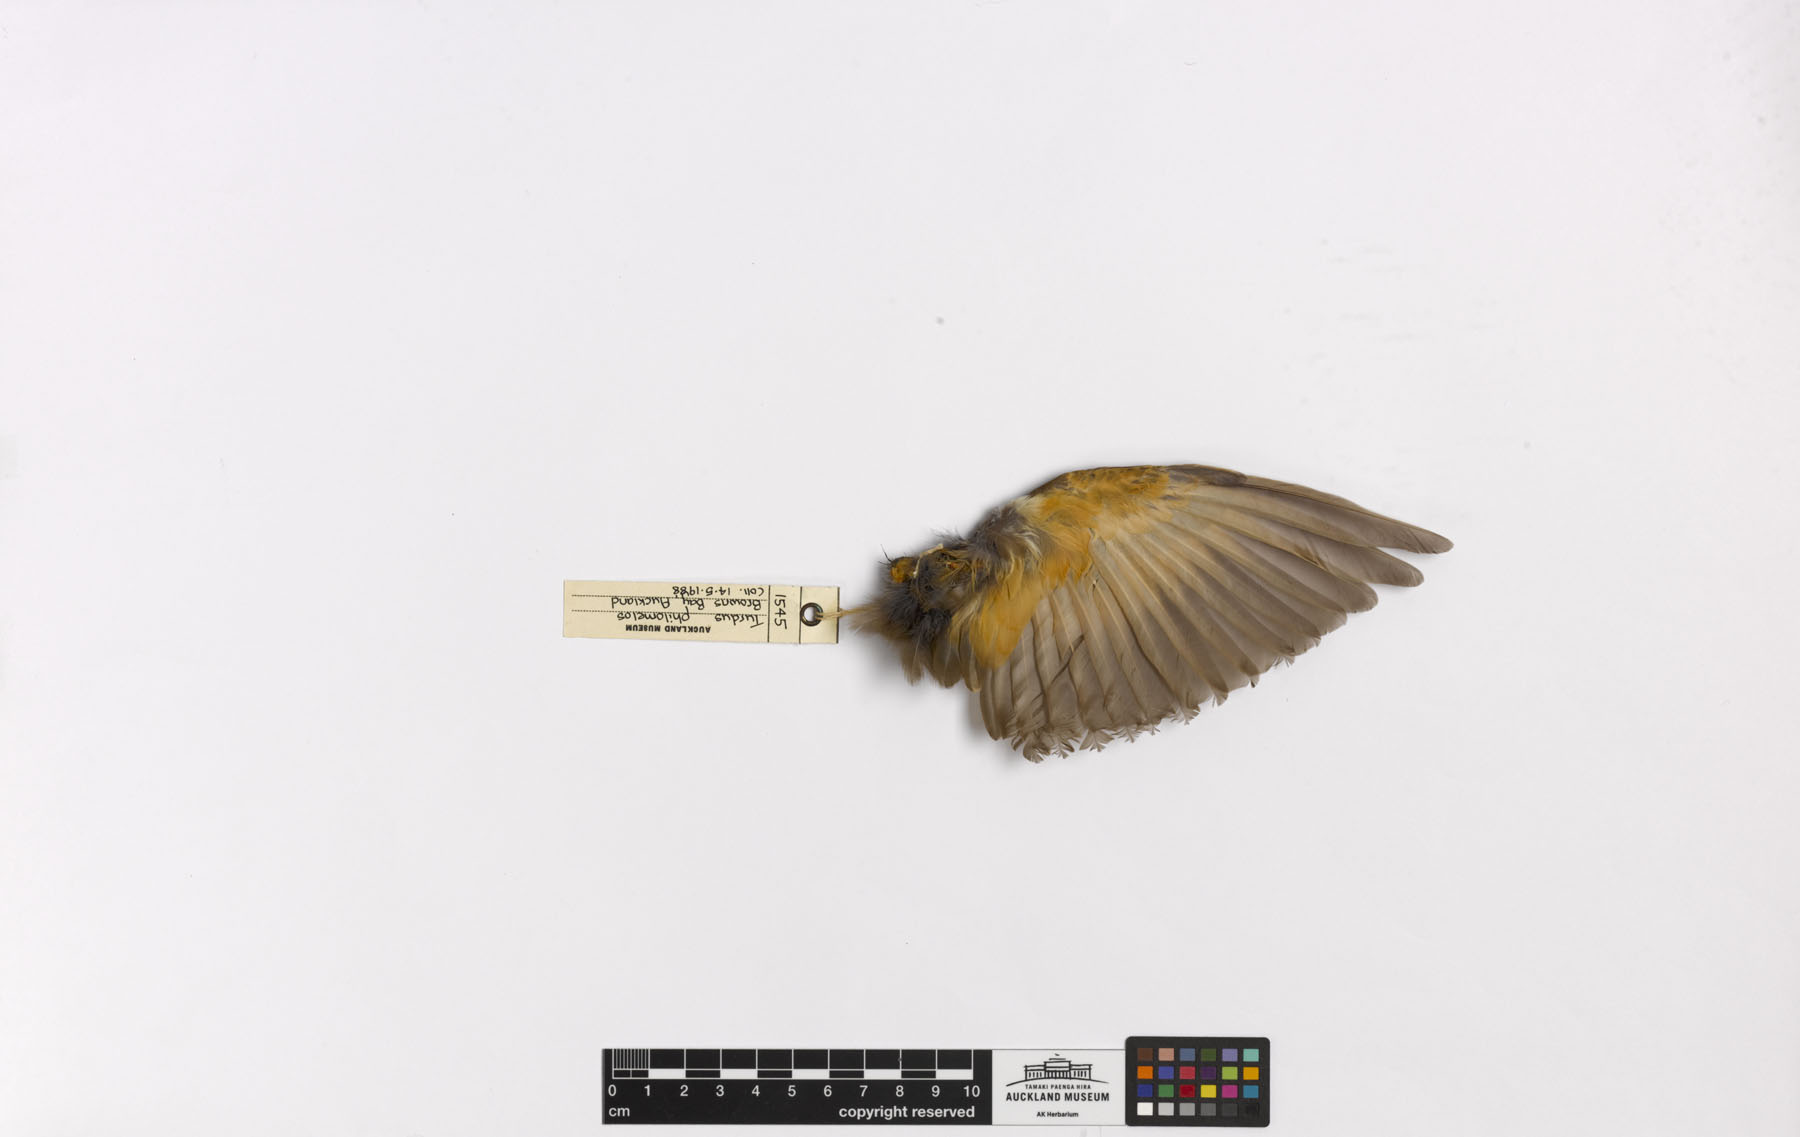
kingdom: Animalia
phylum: Chordata
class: Aves
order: Passeriformes
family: Turdidae
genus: Turdus
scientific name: Turdus philomelos
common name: Song thrush
